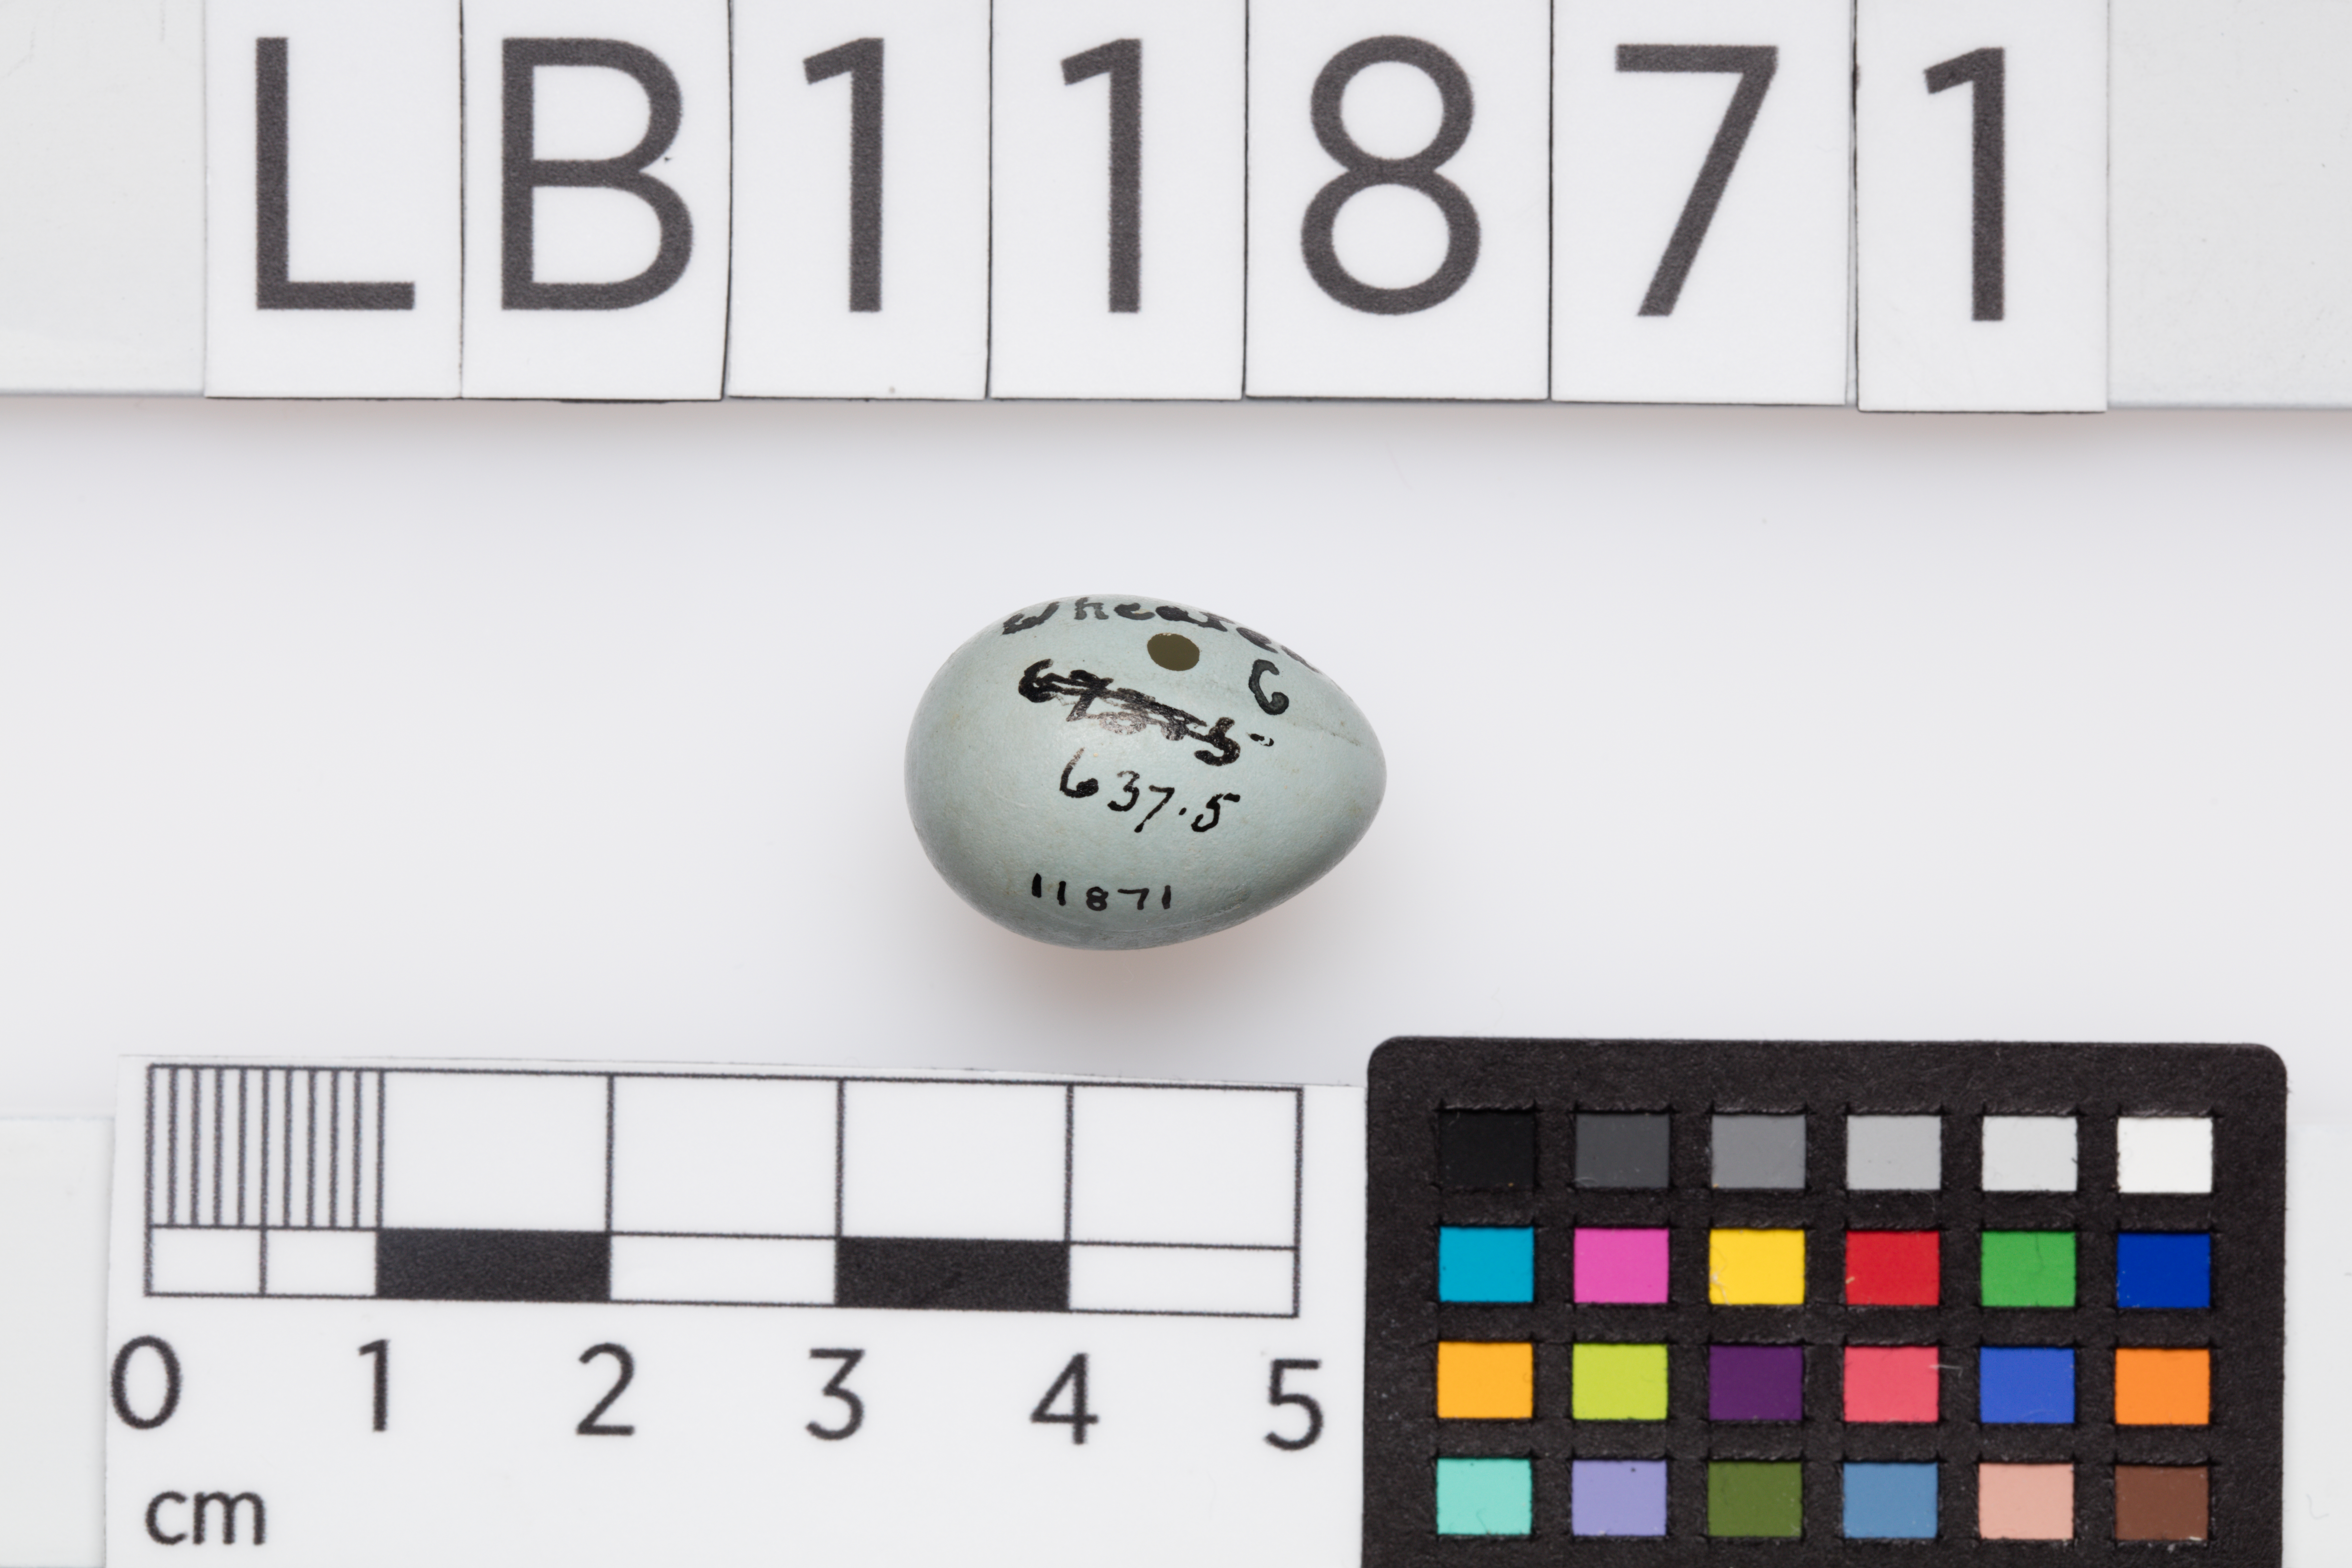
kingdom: Animalia
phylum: Chordata
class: Aves
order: Passeriformes
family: Muscicapidae
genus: Oenanthe
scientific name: Oenanthe oenanthe
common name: Northern wheatear
